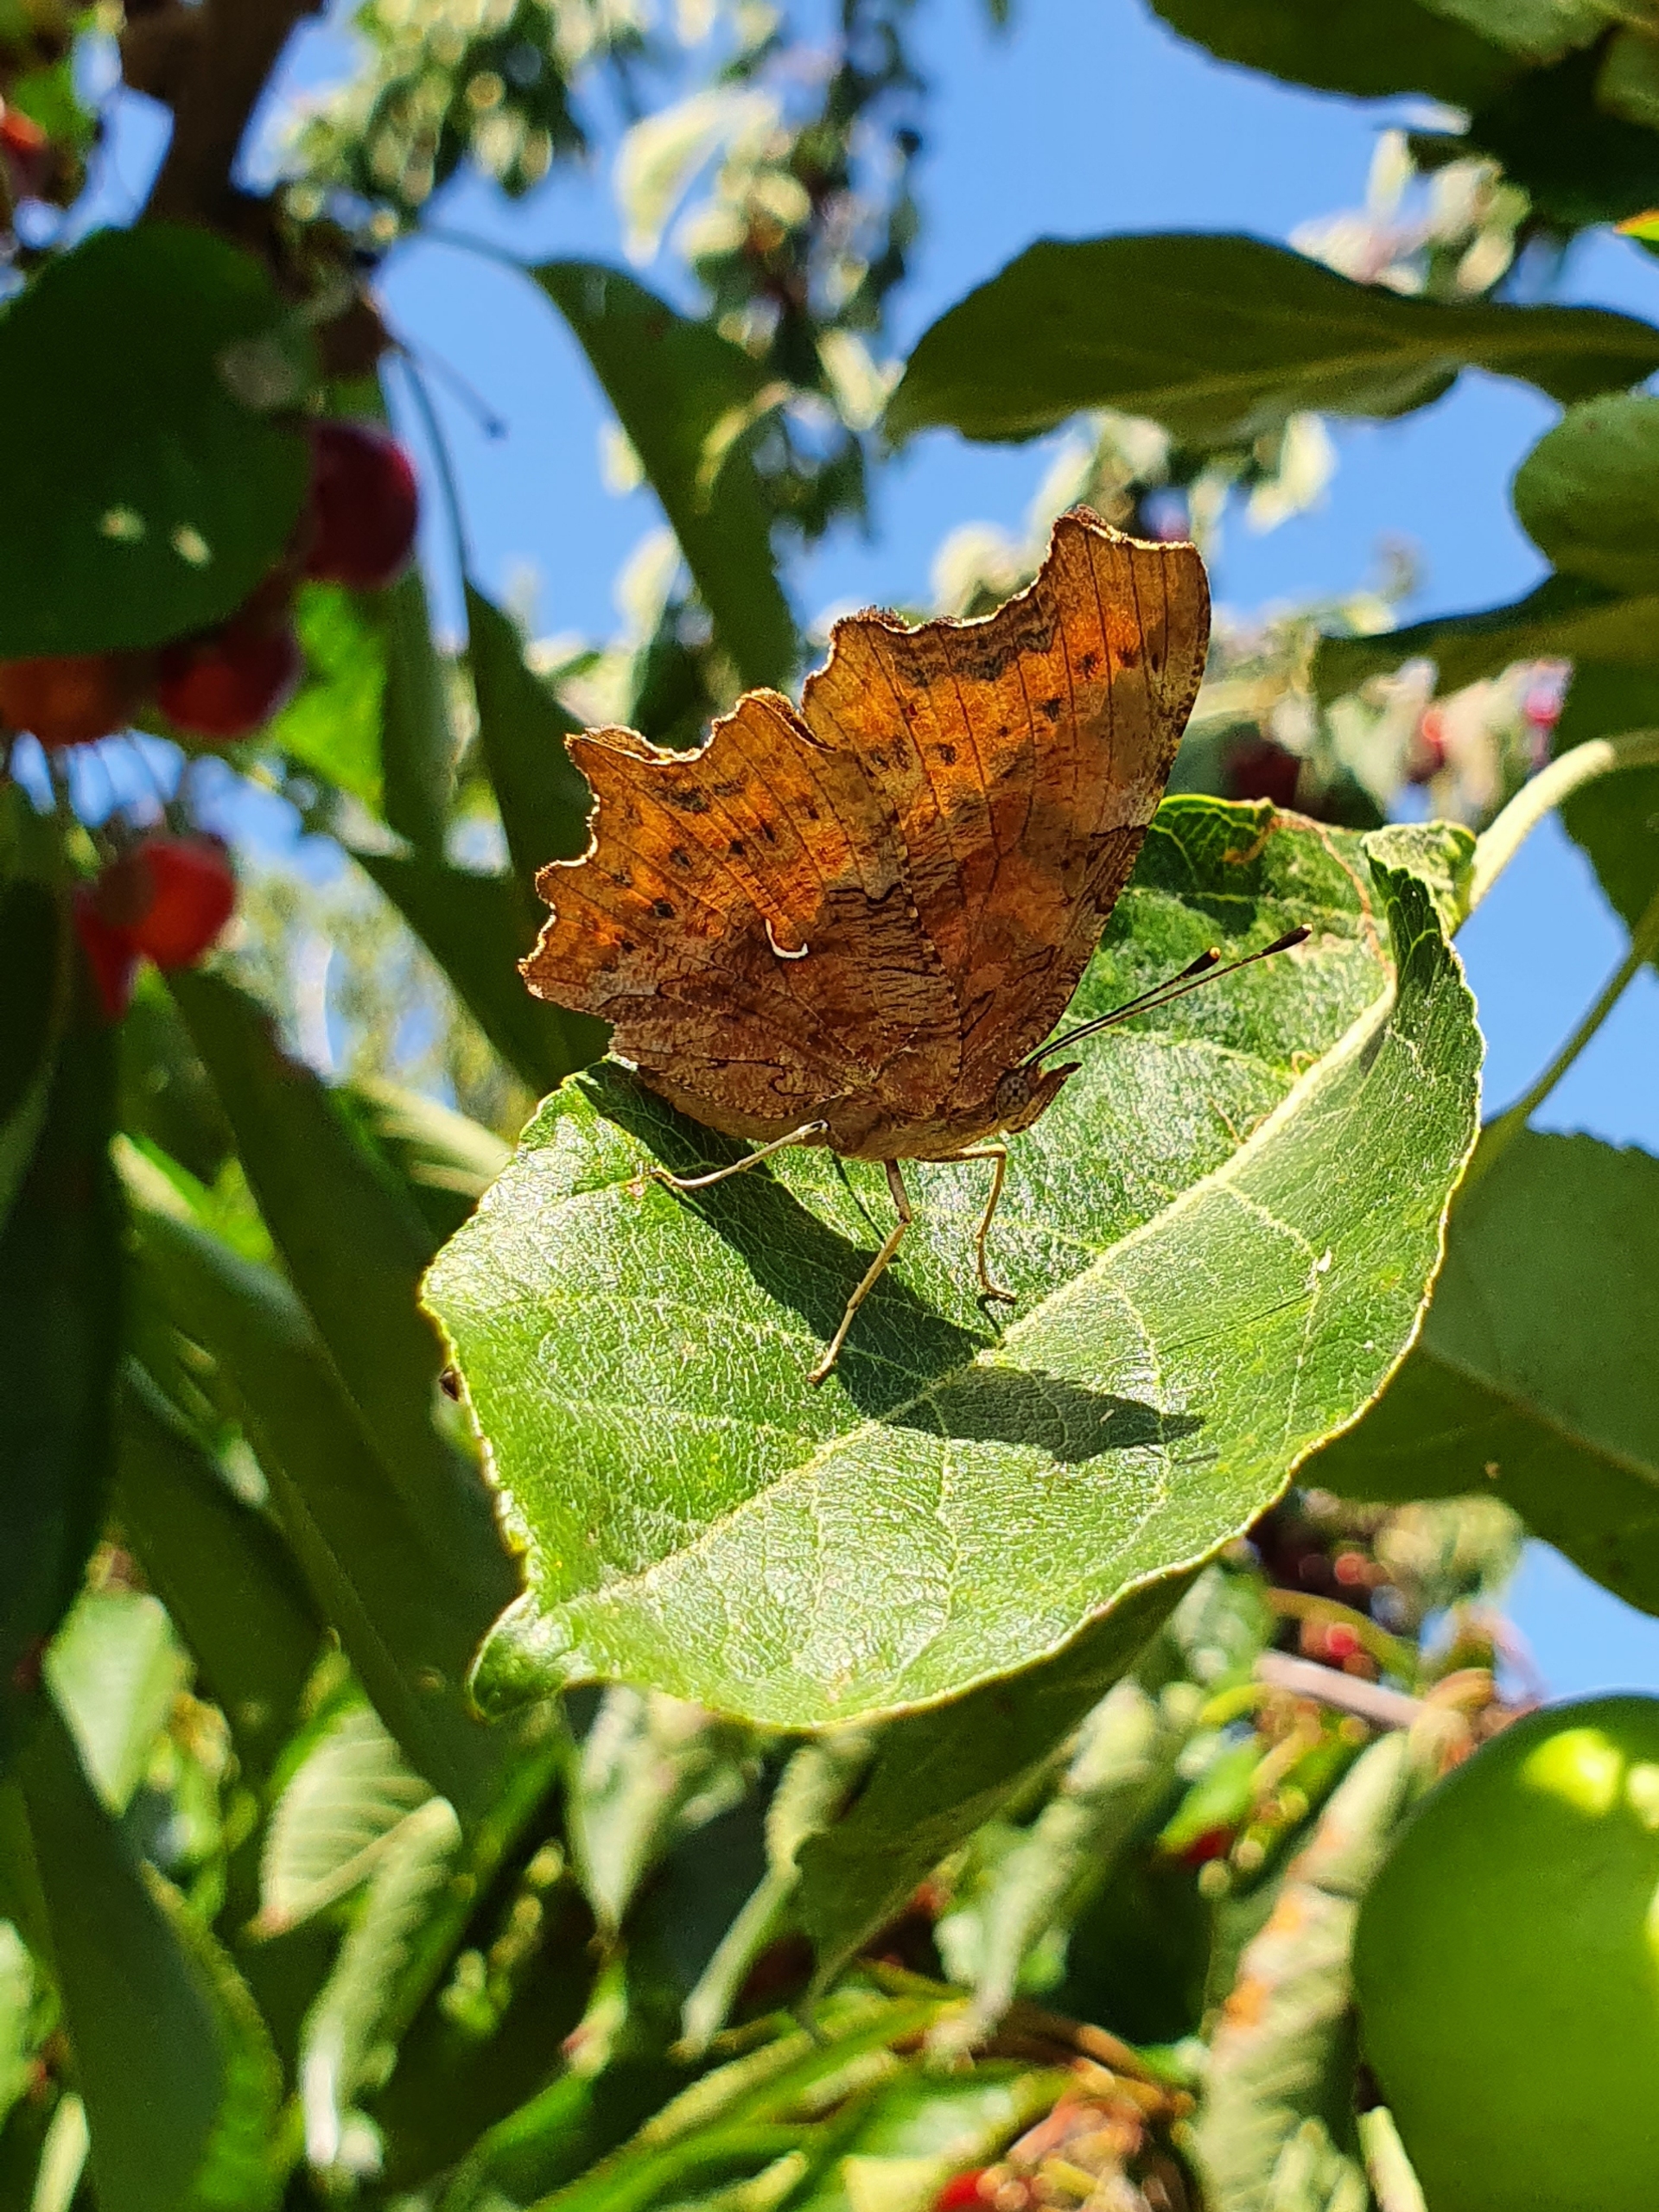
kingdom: Animalia
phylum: Arthropoda
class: Insecta
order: Lepidoptera
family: Nymphalidae
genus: Polygonia
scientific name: Polygonia c-album
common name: Det hvide C
